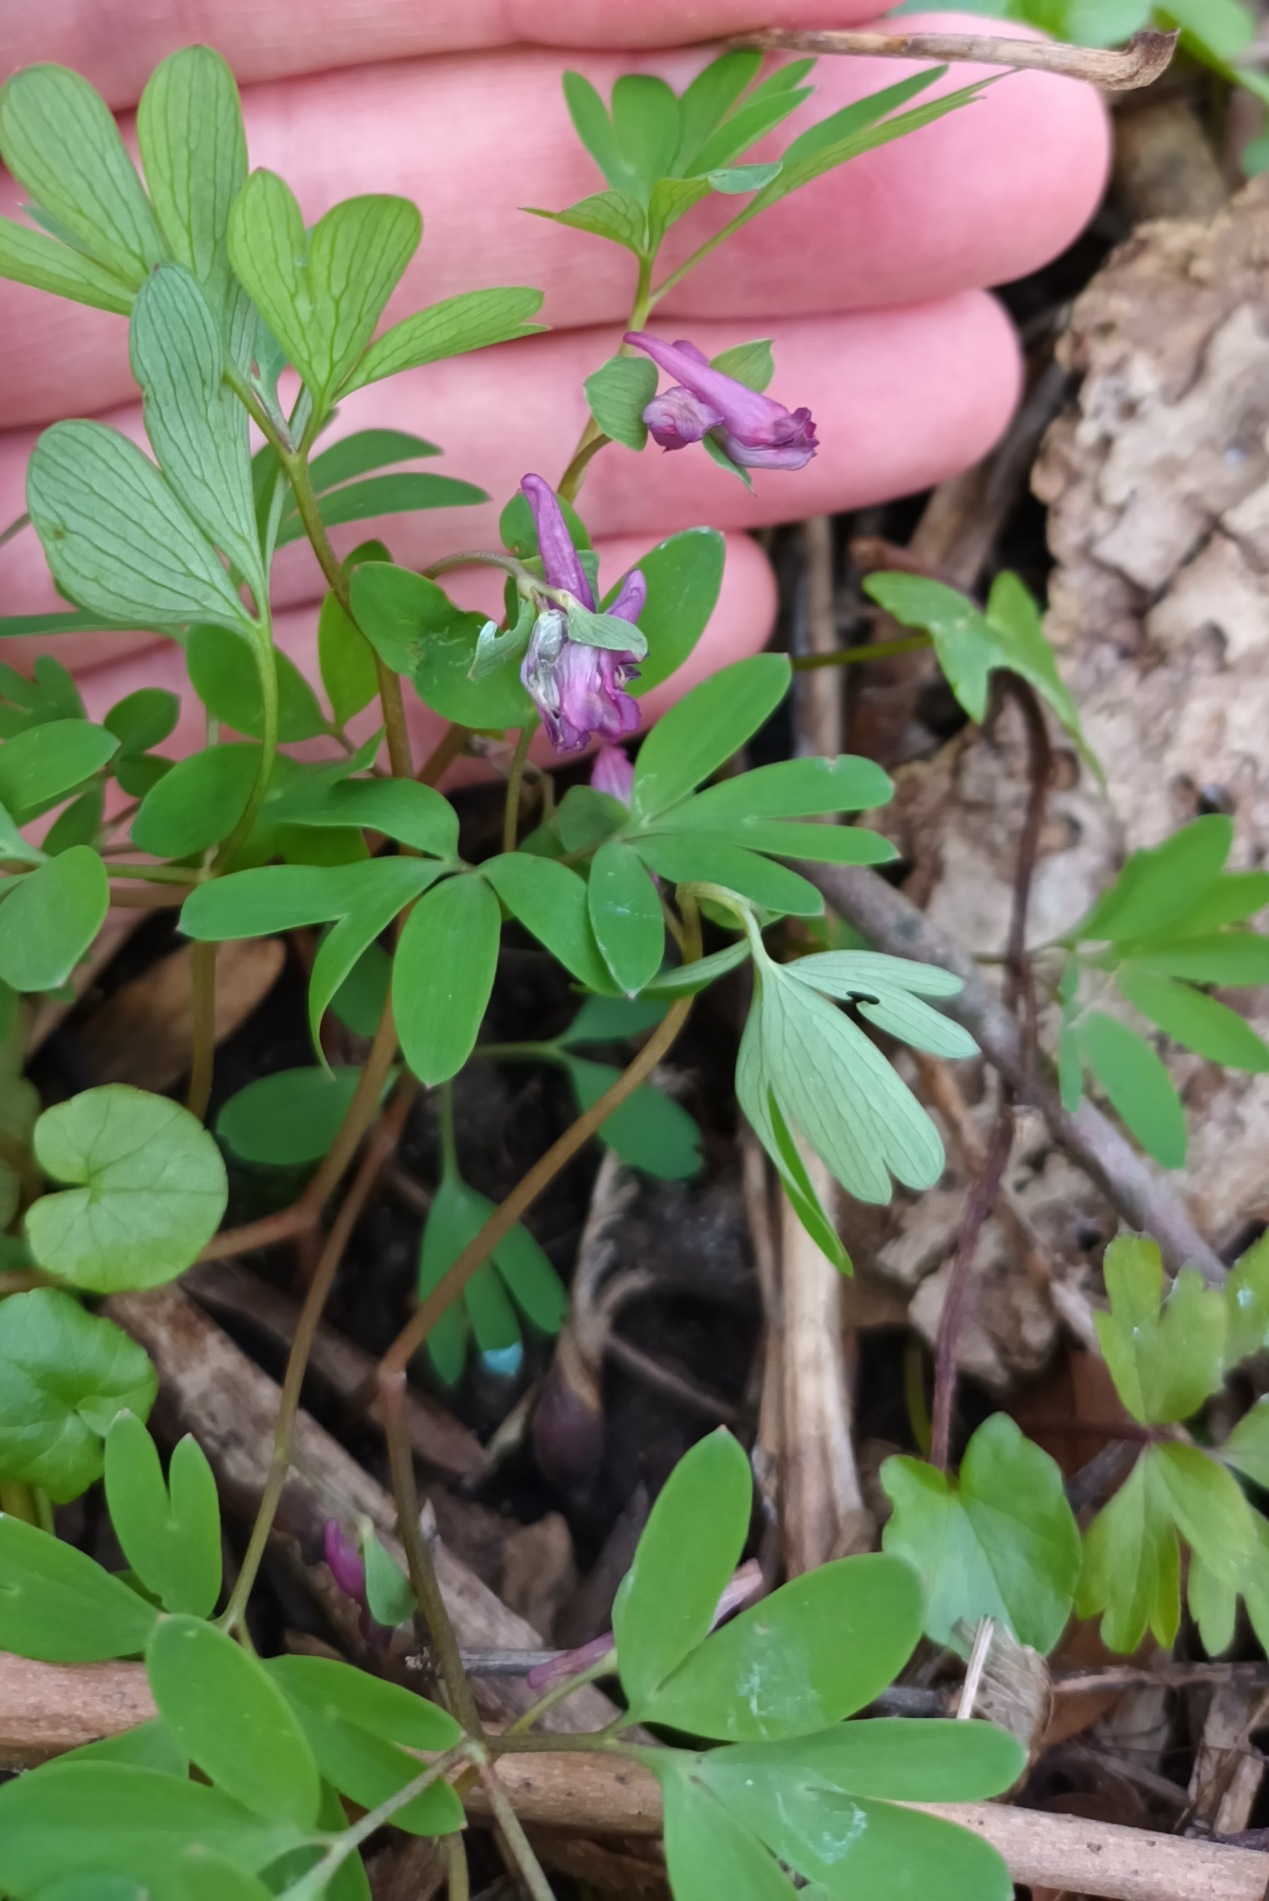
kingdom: Plantae
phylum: Tracheophyta
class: Magnoliopsida
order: Ranunculales
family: Papaveraceae
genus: Corydalis
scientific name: Corydalis intermedia
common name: Liden lærkespore
